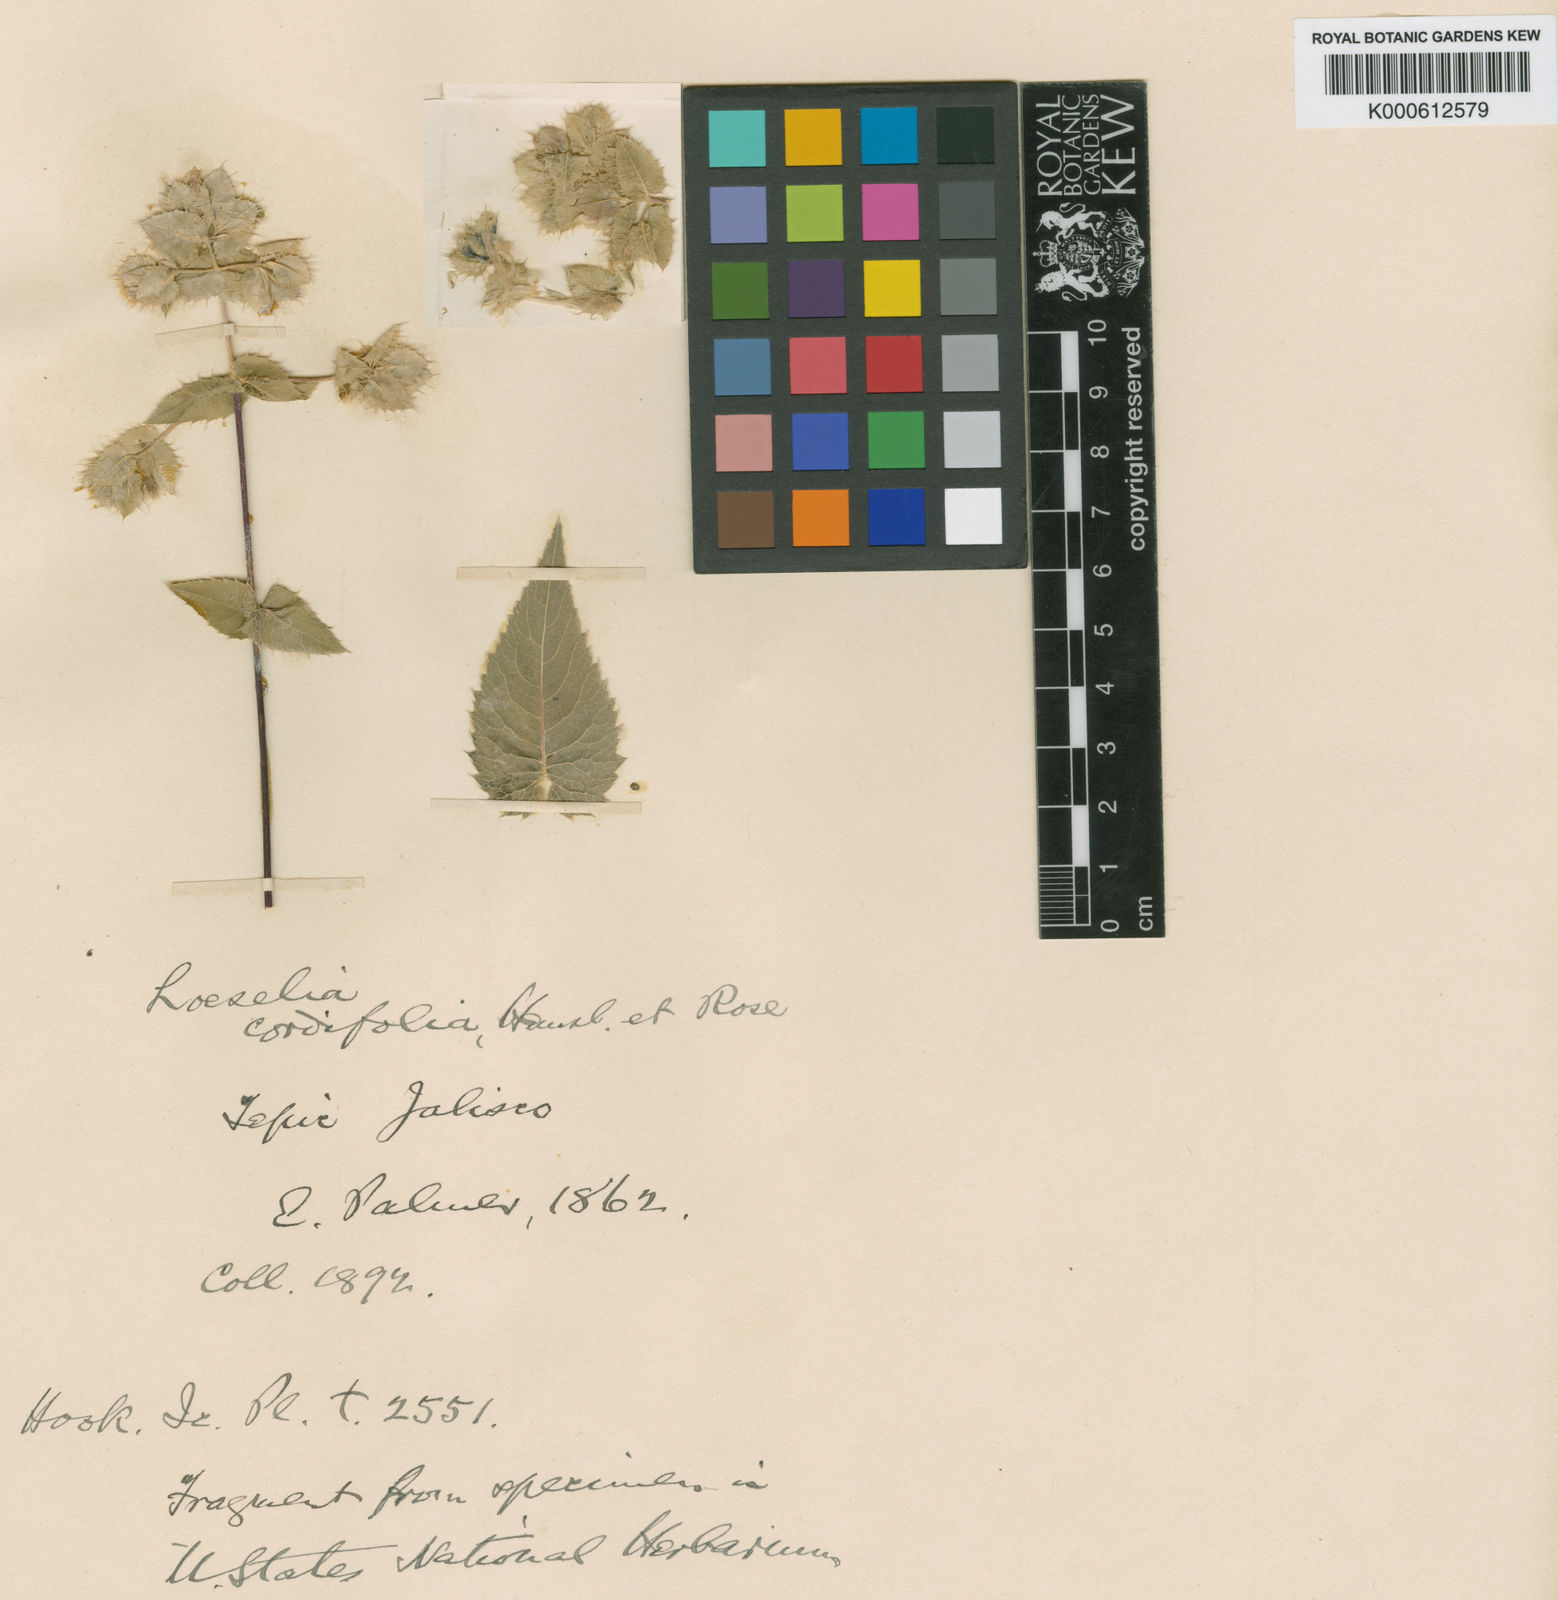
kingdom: Plantae
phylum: Tracheophyta
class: Magnoliopsida
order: Ericales
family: Polemoniaceae
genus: Loeselia
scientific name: Loeselia amplectens
